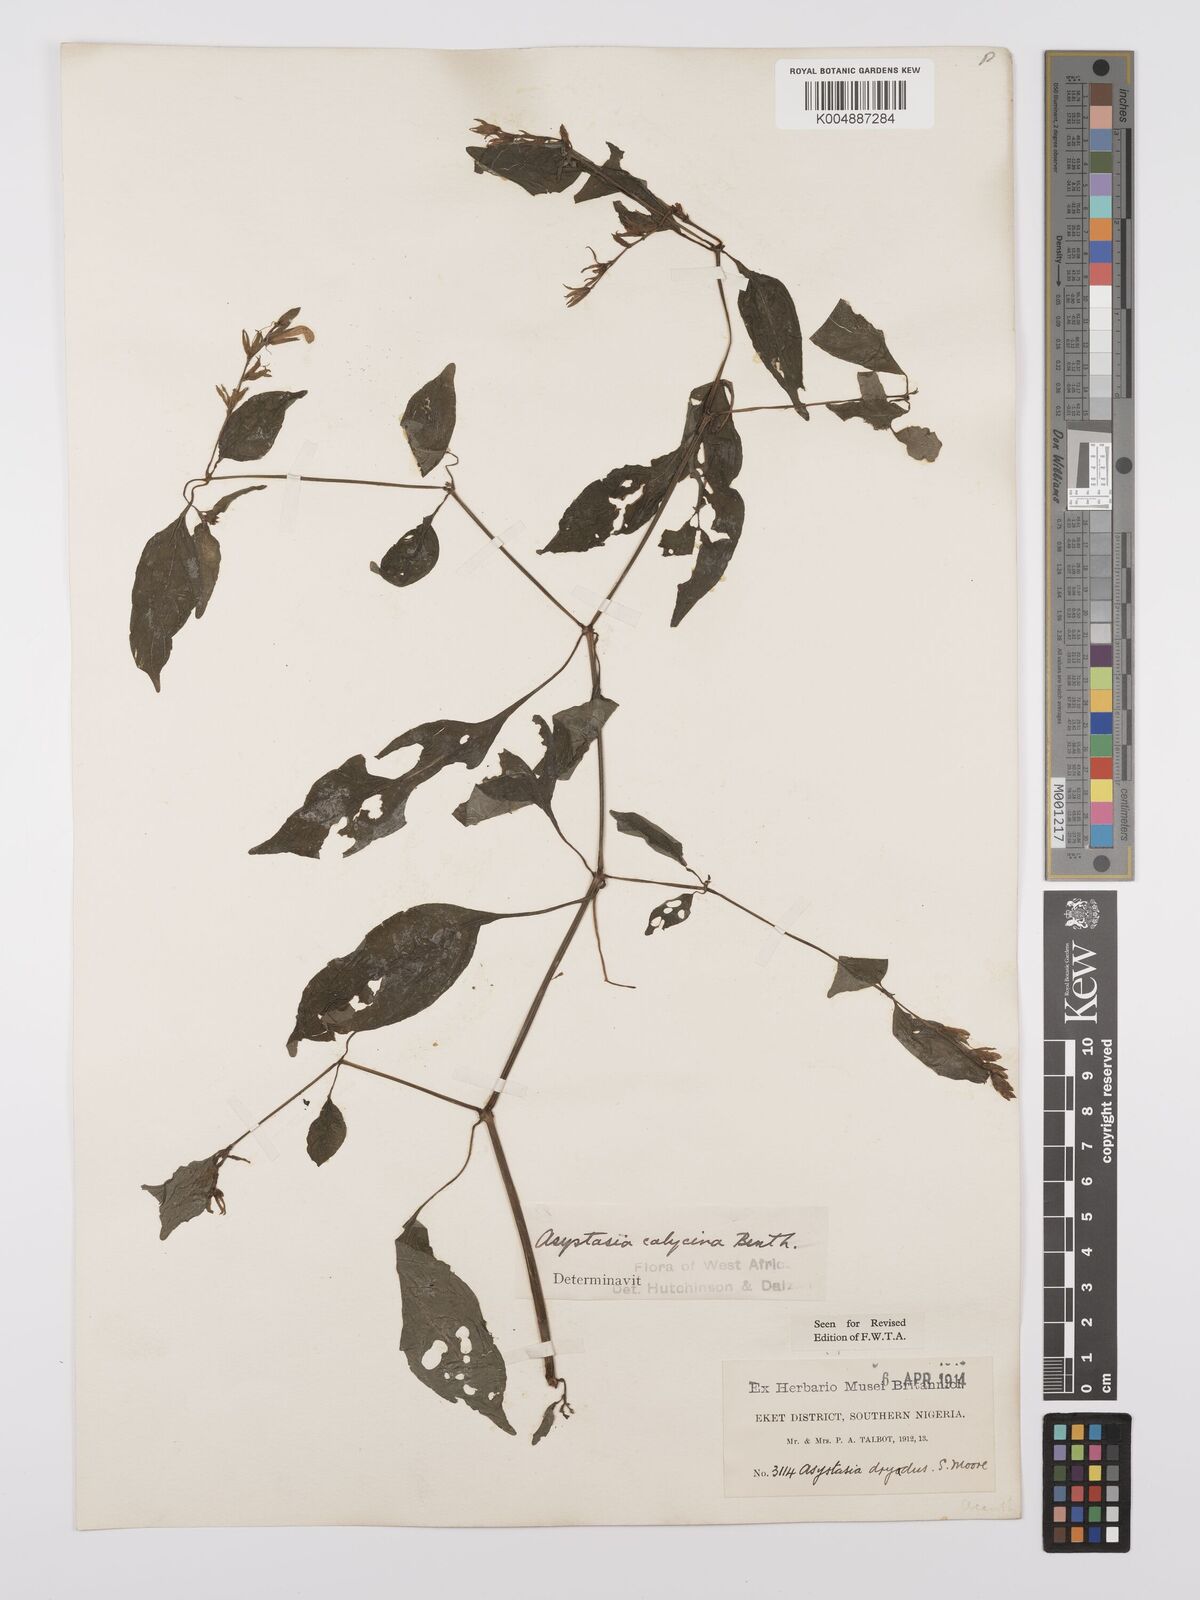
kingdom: Plantae
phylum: Tracheophyta
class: Magnoliopsida
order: Lamiales
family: Acanthaceae
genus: Asystasia
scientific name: Asystasia buettneri
